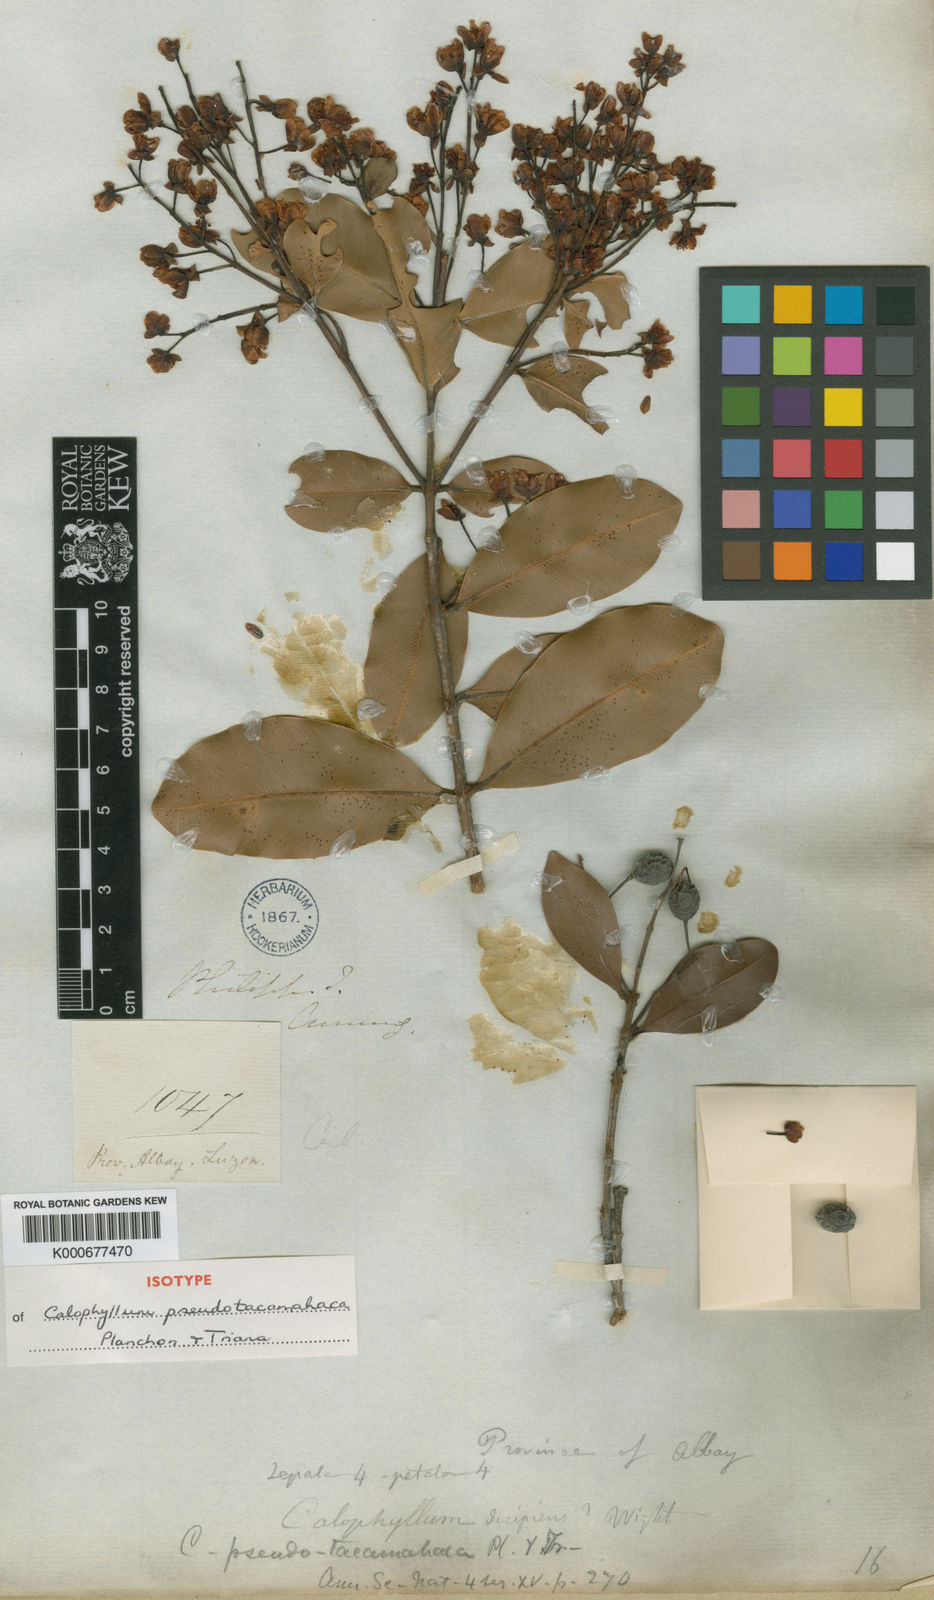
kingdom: Plantae
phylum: Tracheophyta
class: Magnoliopsida
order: Malpighiales
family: Calophyllaceae
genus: Calophyllum
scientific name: Calophyllum pentapetalum
